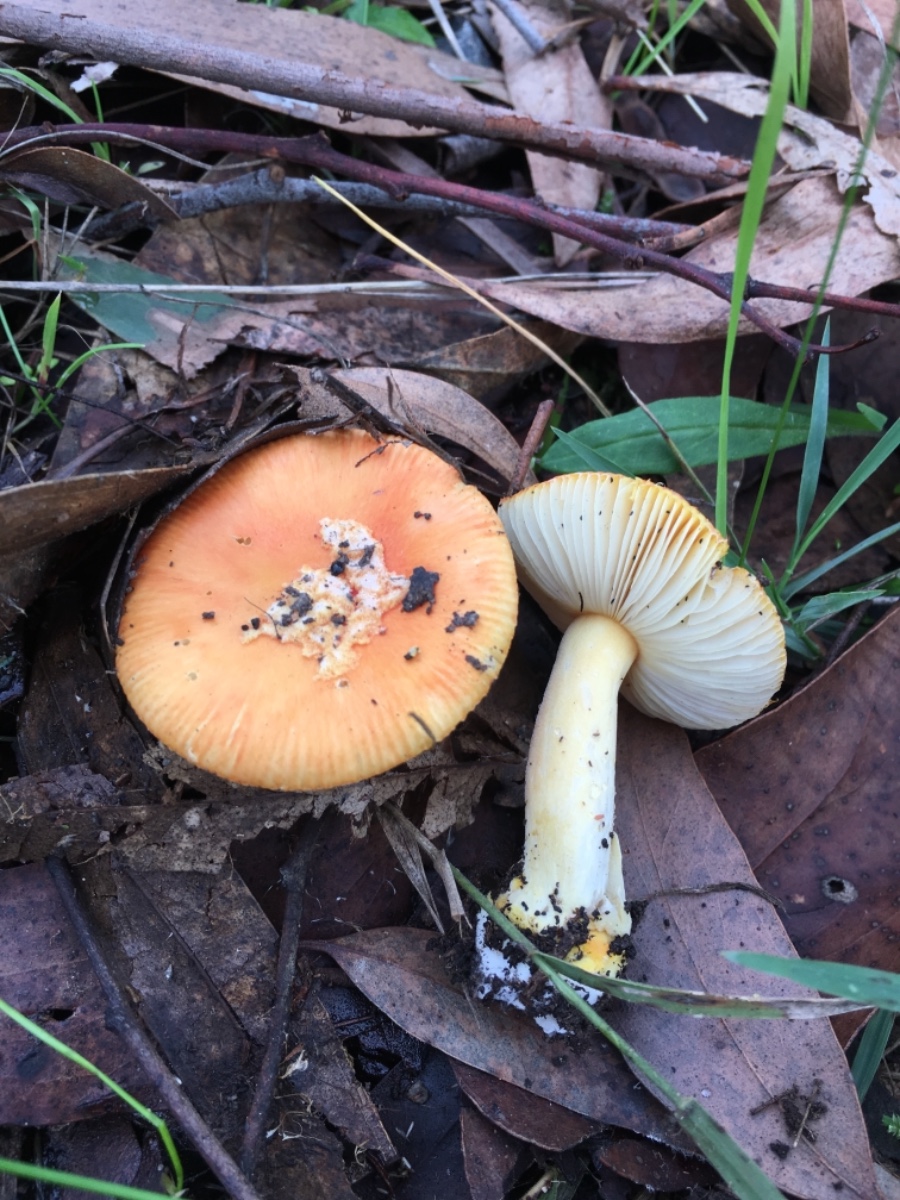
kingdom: Fungi
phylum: Basidiomycota
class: Agaricomycetes
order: Agaricales
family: Amanitaceae
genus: Amanita
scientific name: Amanita xanthocephala
